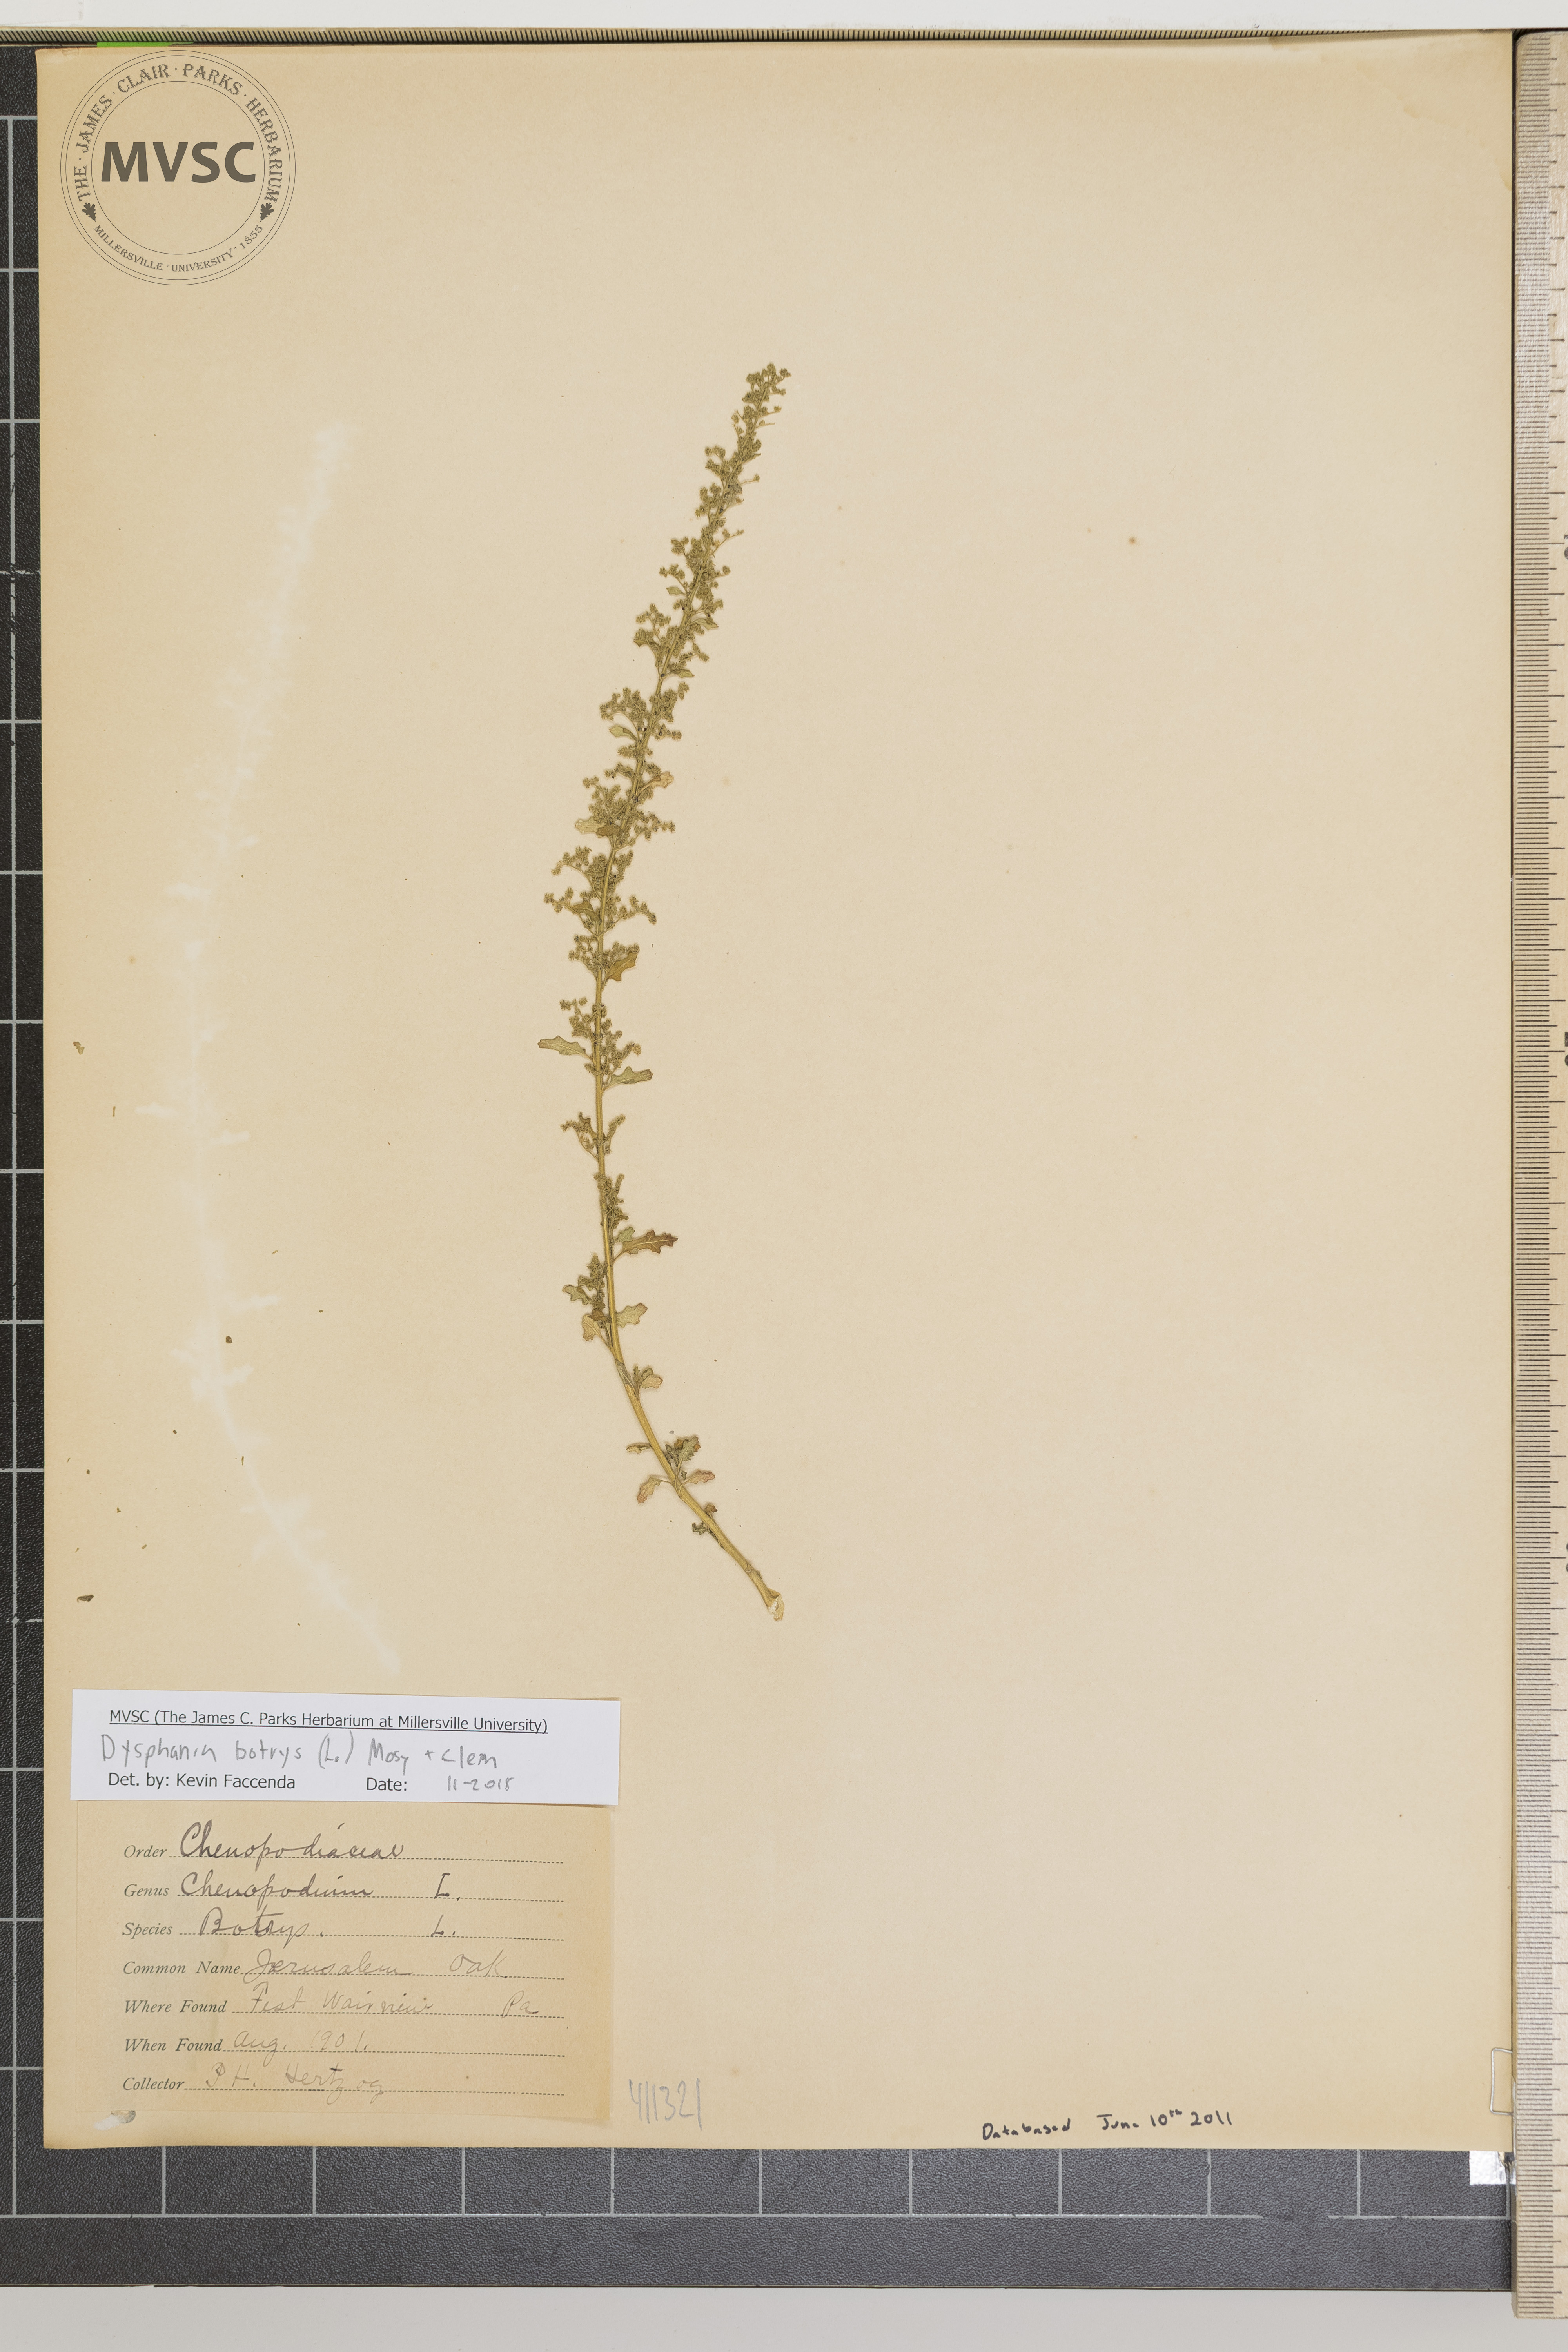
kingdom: Plantae
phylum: Tracheophyta
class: Magnoliopsida
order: Caryophyllales
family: Amaranthaceae
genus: Dysphania
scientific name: Dysphania botrys
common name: Jerusalem oak
